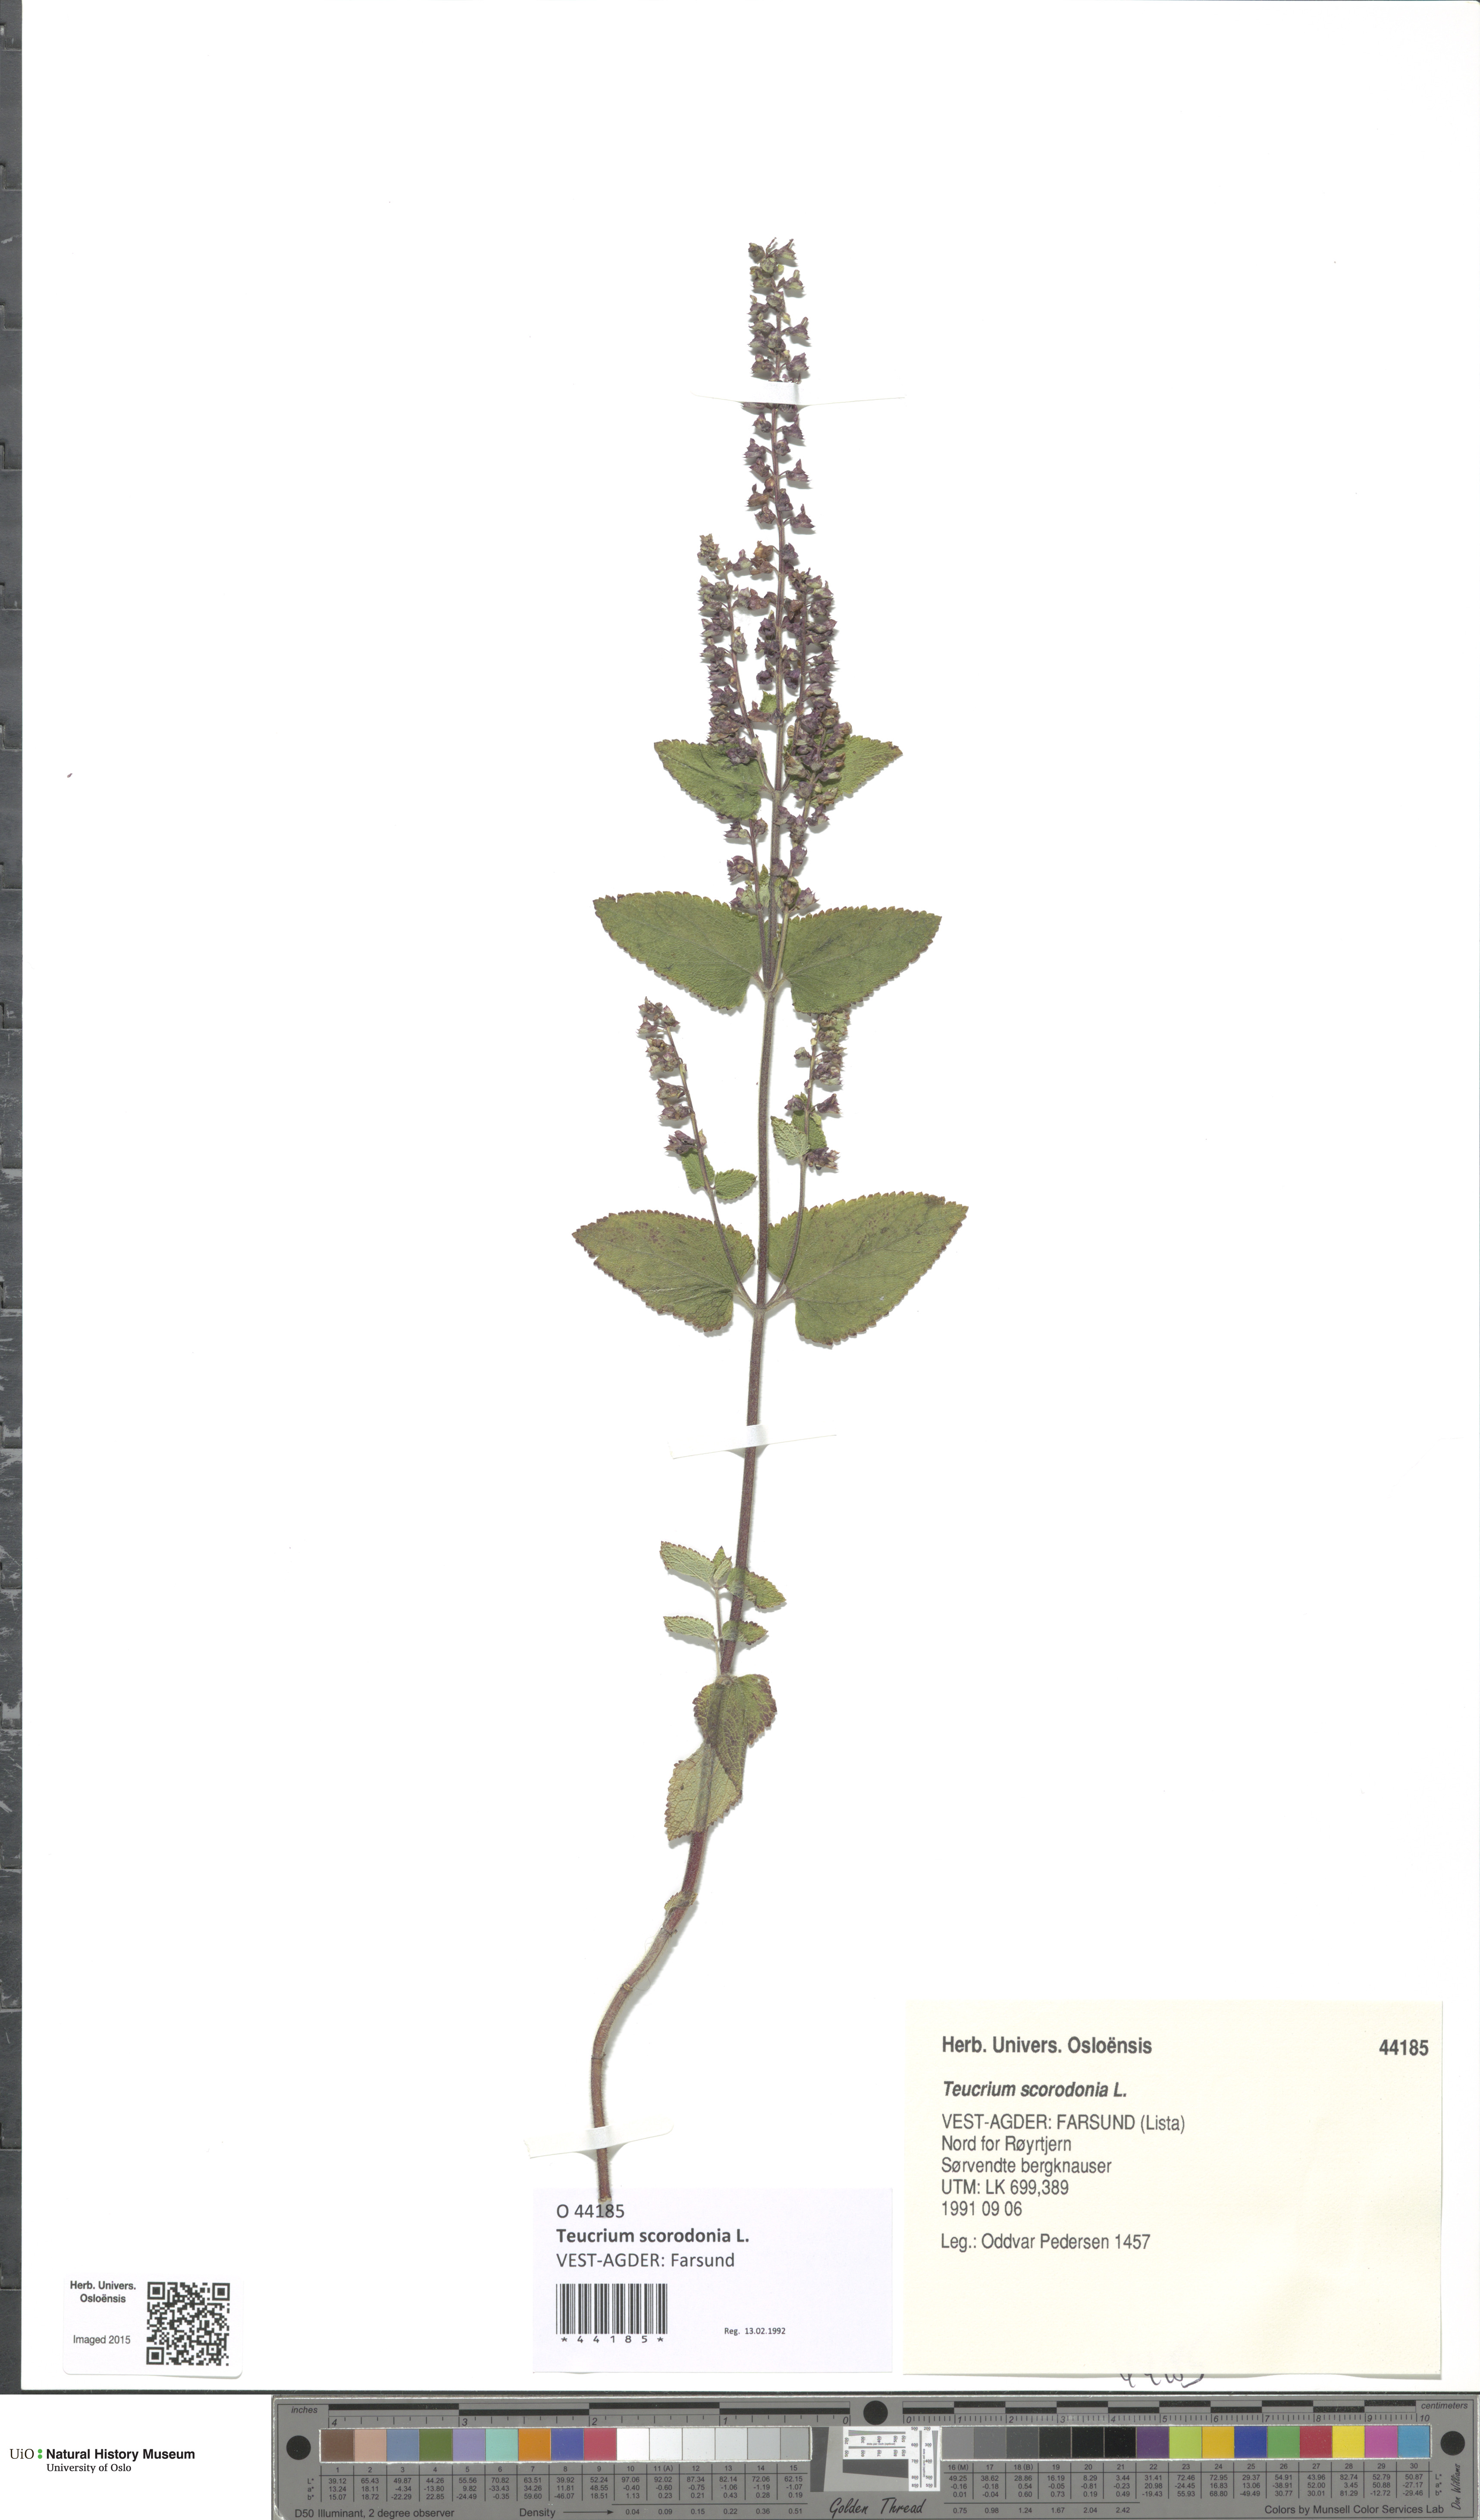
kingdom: Plantae
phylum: Tracheophyta
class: Magnoliopsida
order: Lamiales
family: Lamiaceae
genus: Teucrium
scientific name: Teucrium scorodonia
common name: Woodland germander
